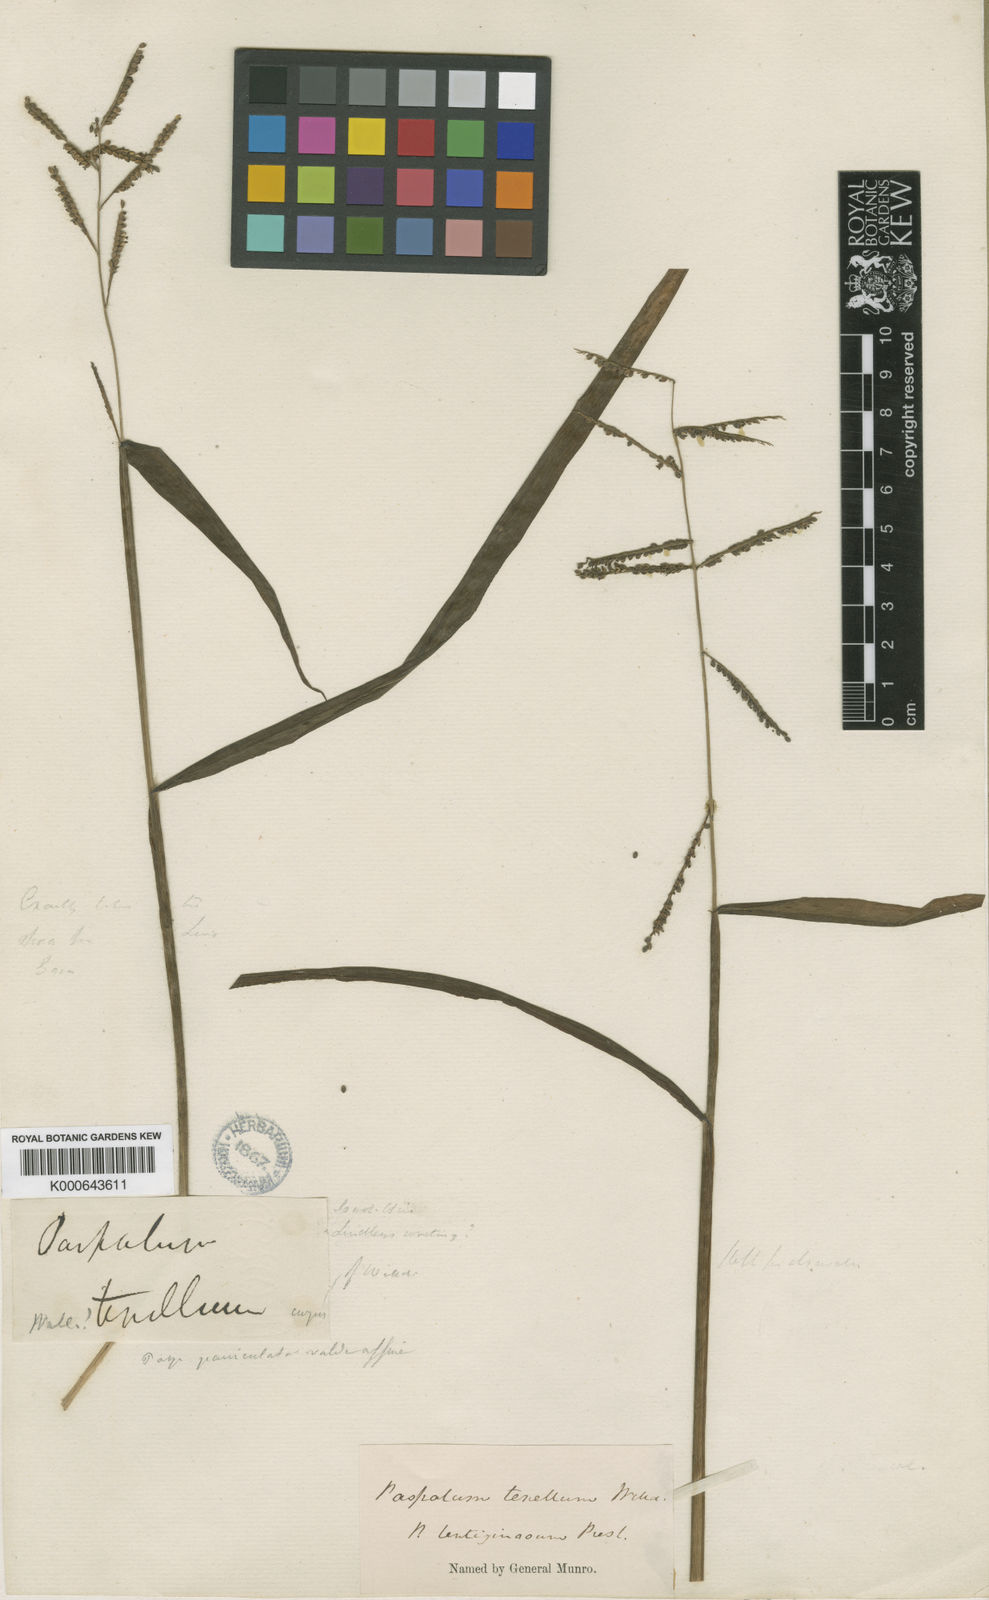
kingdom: Plantae
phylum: Tracheophyta
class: Liliopsida
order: Poales
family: Poaceae
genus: Paspalum
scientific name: Paspalum tenellum
